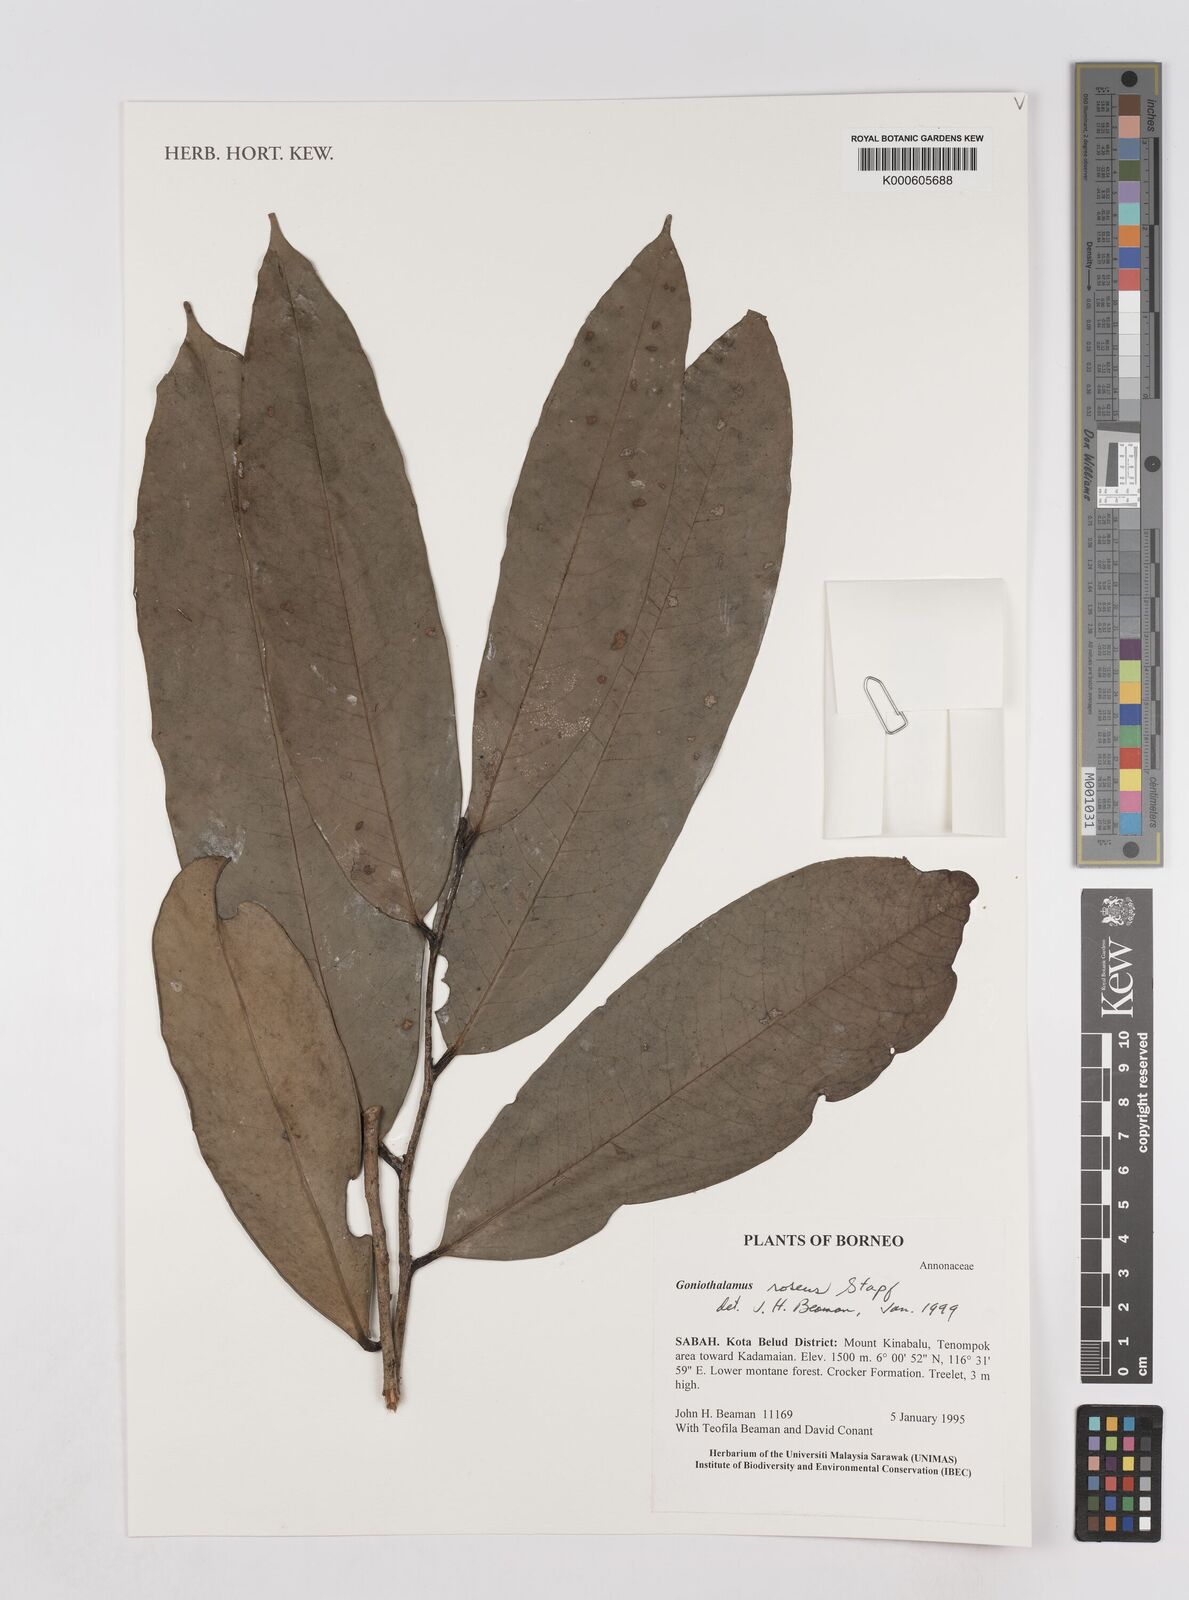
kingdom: Plantae
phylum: Tracheophyta
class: Magnoliopsida
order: Magnoliales
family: Annonaceae
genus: Goniothalamus
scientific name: Goniothalamus roseus
